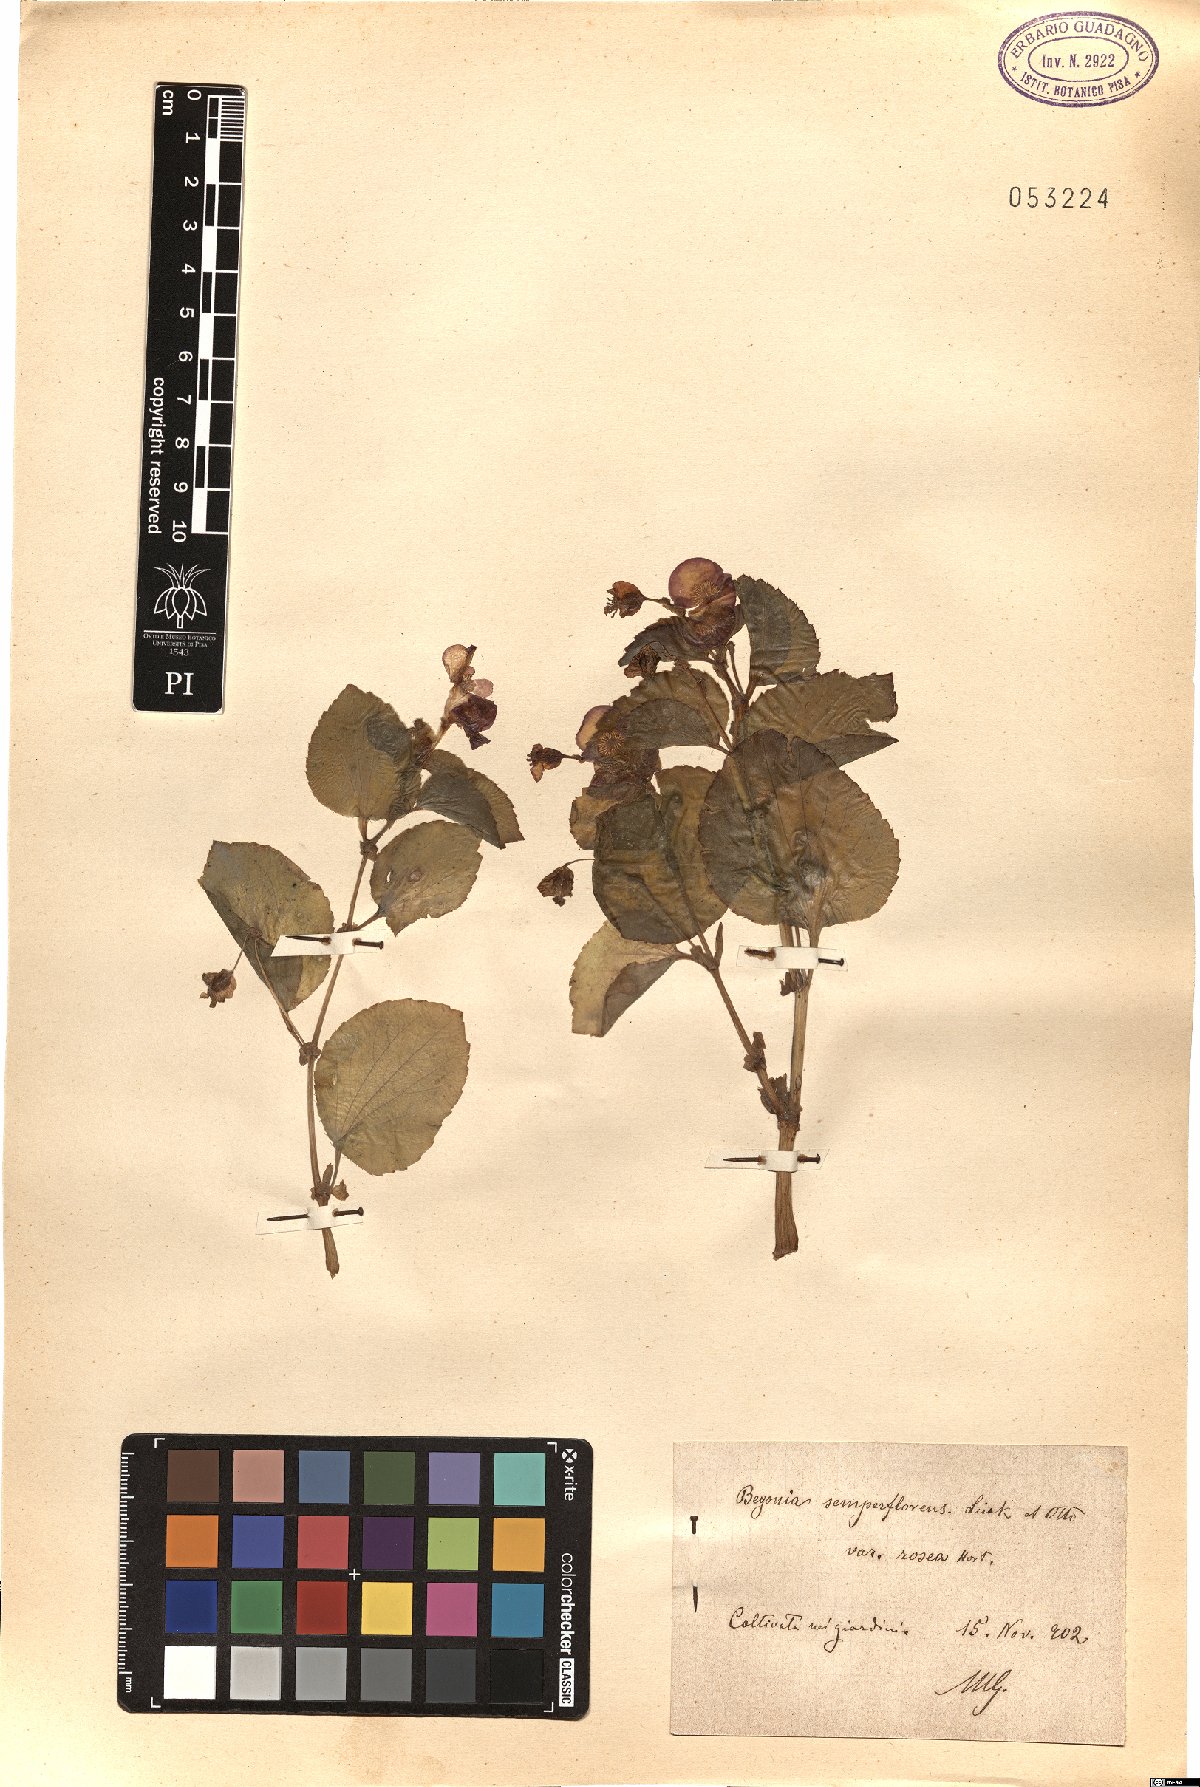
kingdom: Plantae
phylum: Tracheophyta
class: Magnoliopsida
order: Cucurbitales
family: Begoniaceae
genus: Begonia
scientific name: Begonia cucullata
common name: Clubbed begonia
